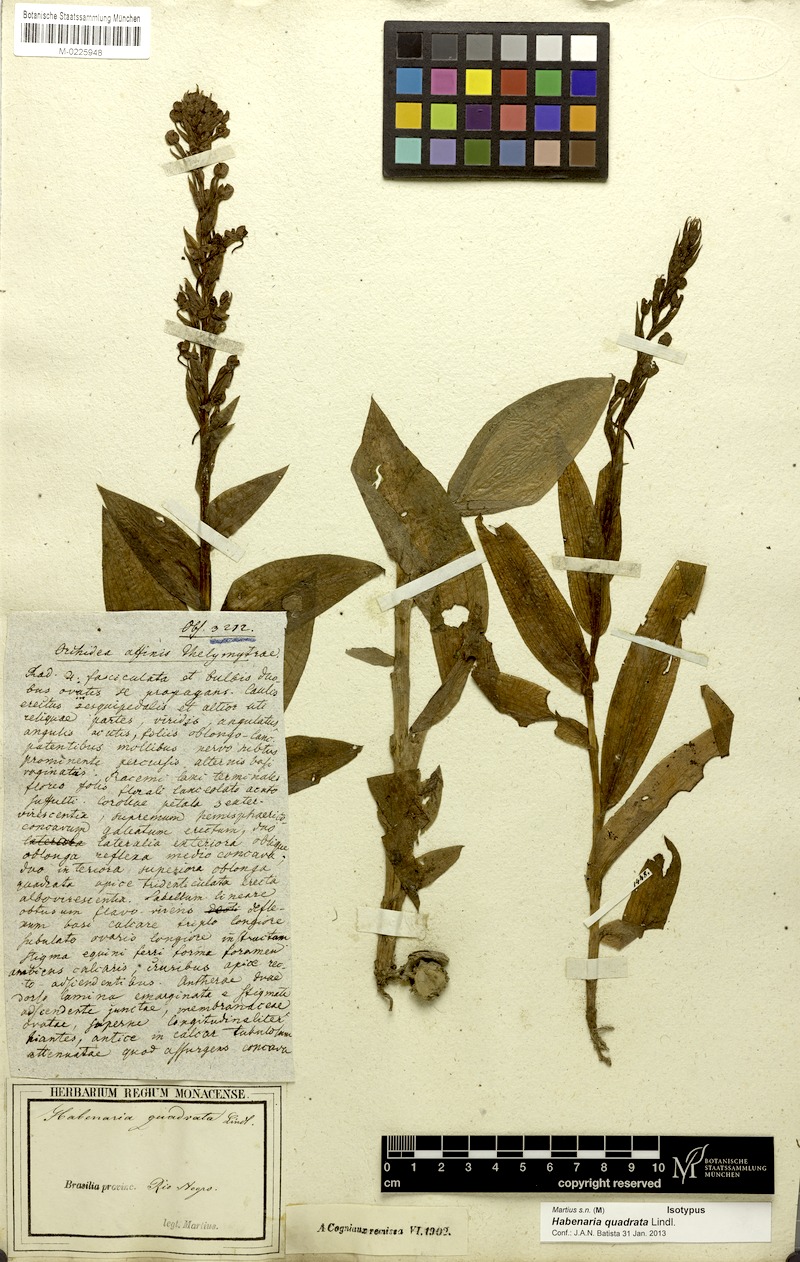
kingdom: Plantae
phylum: Tracheophyta
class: Liliopsida
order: Asparagales
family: Orchidaceae
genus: Habenaria
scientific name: Habenaria quadrata
